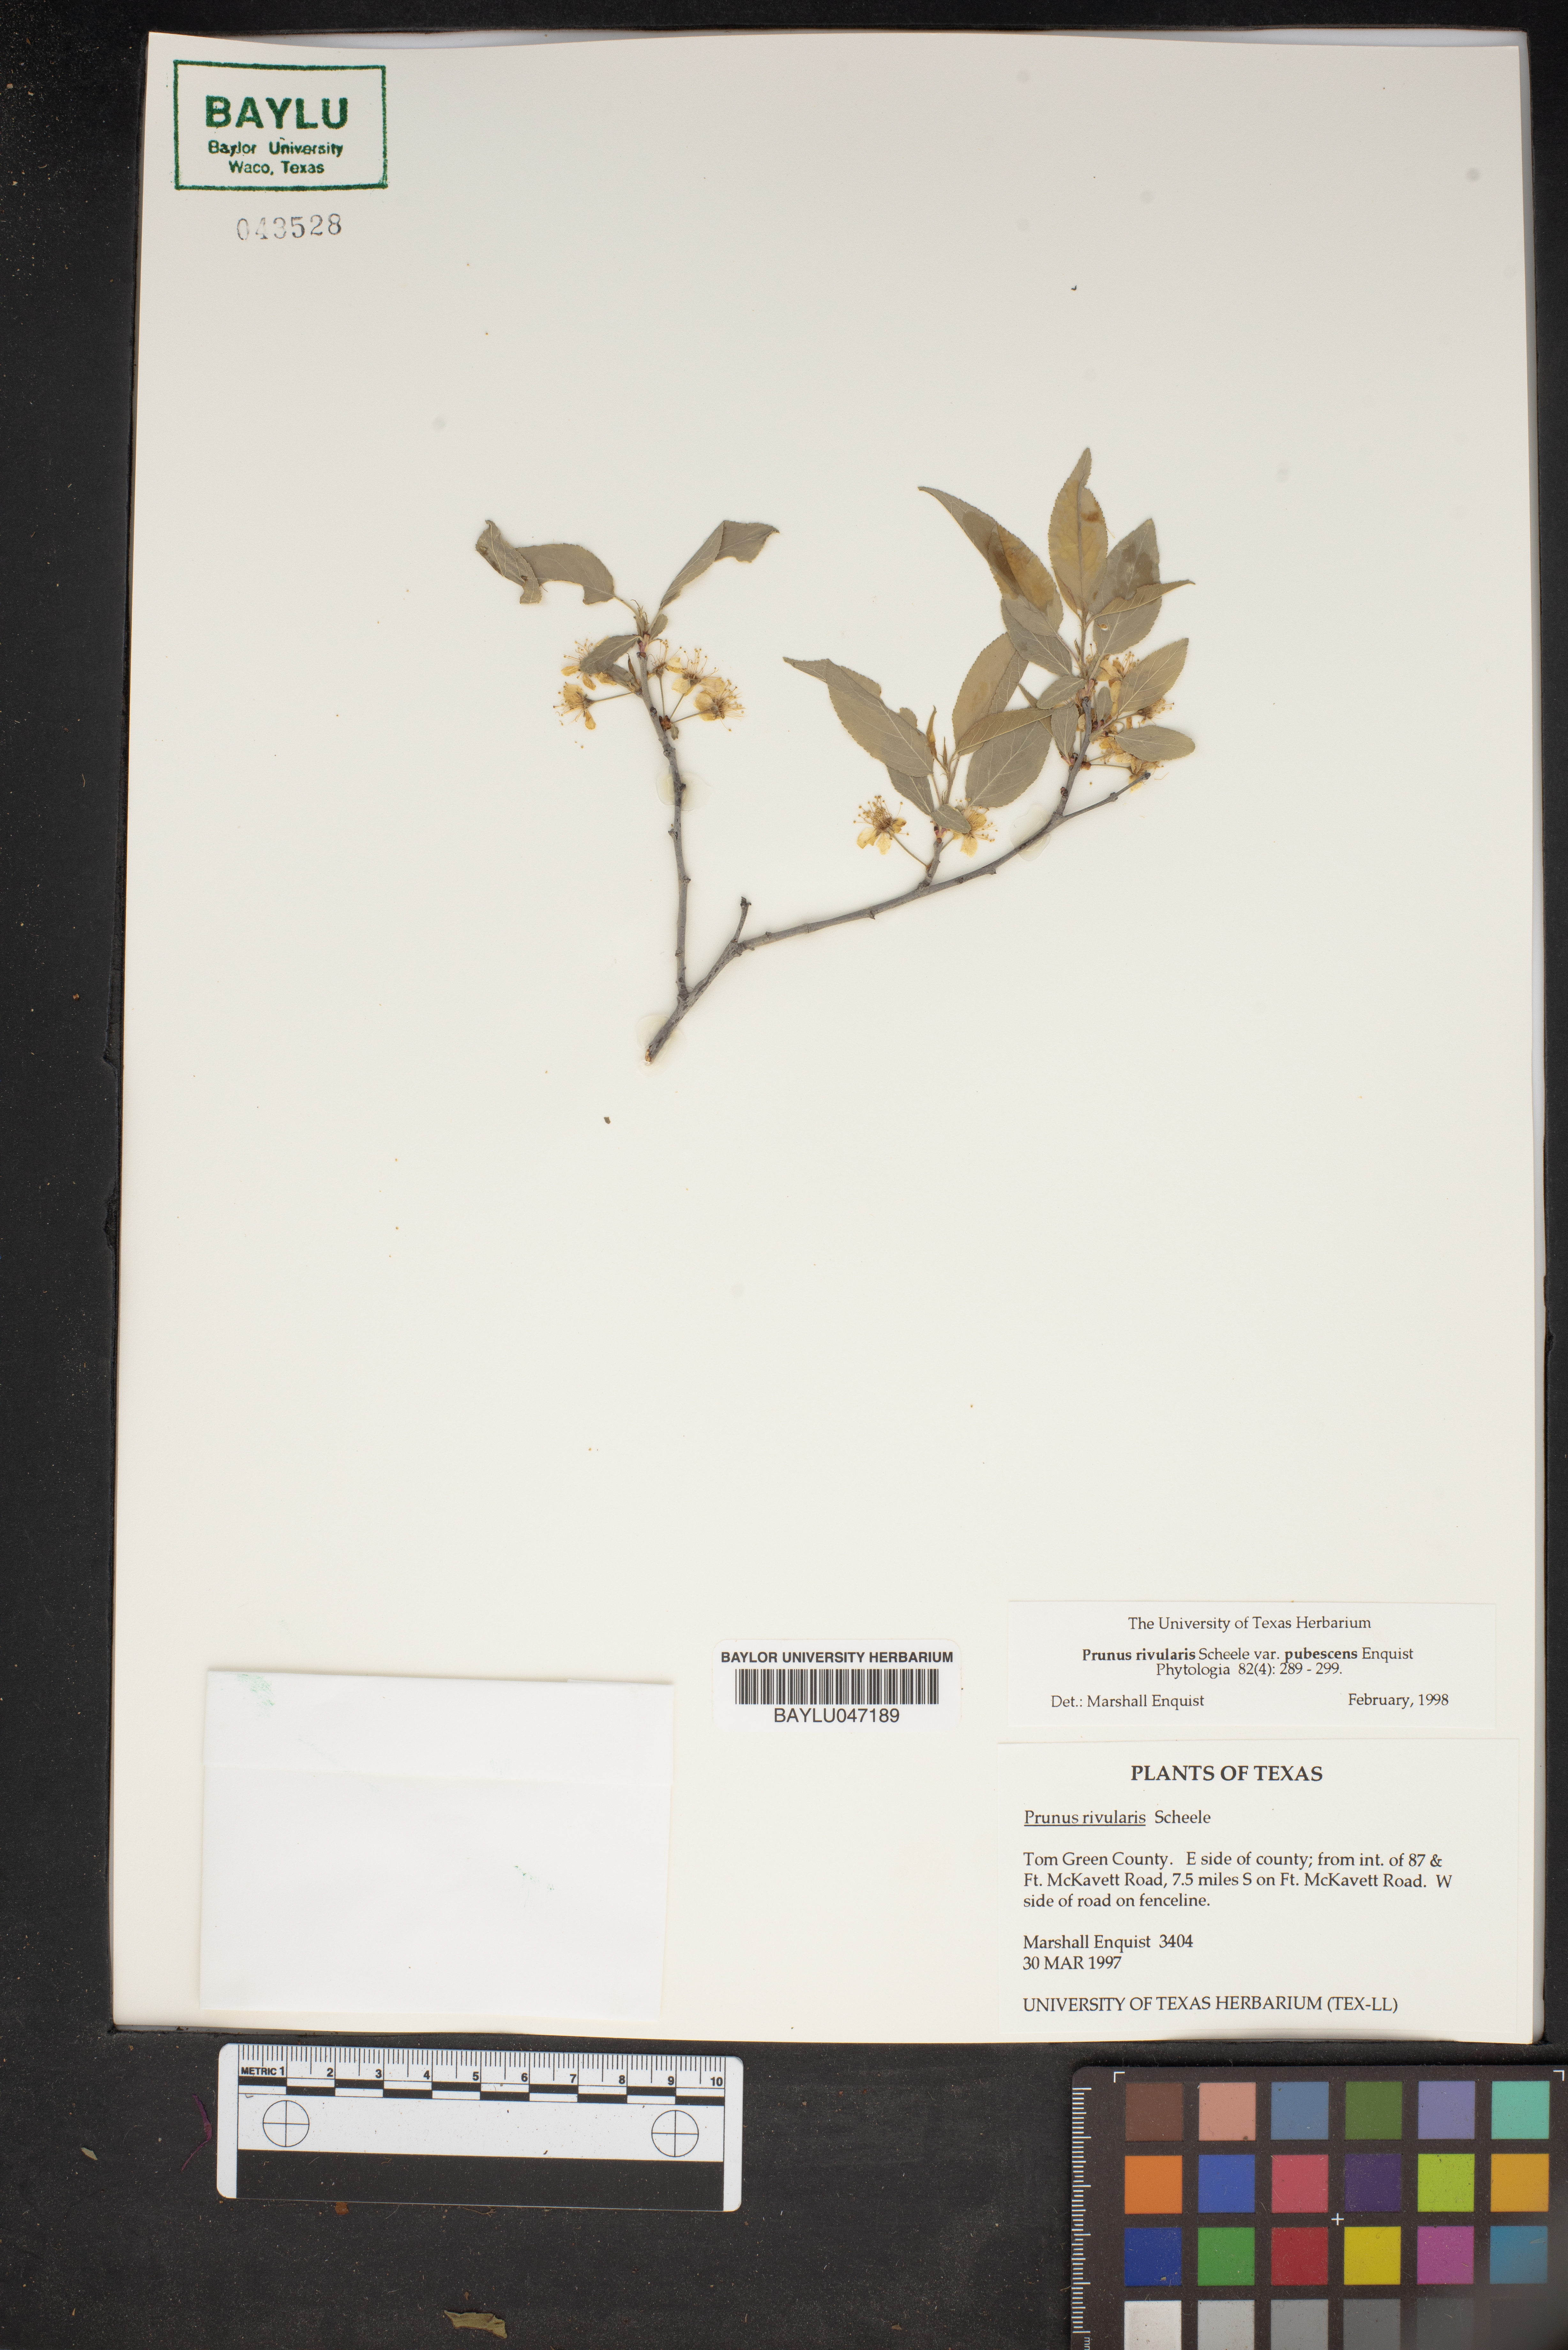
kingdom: Plantae
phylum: Tracheophyta
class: Magnoliopsida
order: Rosales
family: Rosaceae
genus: Prunus
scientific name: Prunus rivularis
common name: Creek plum
